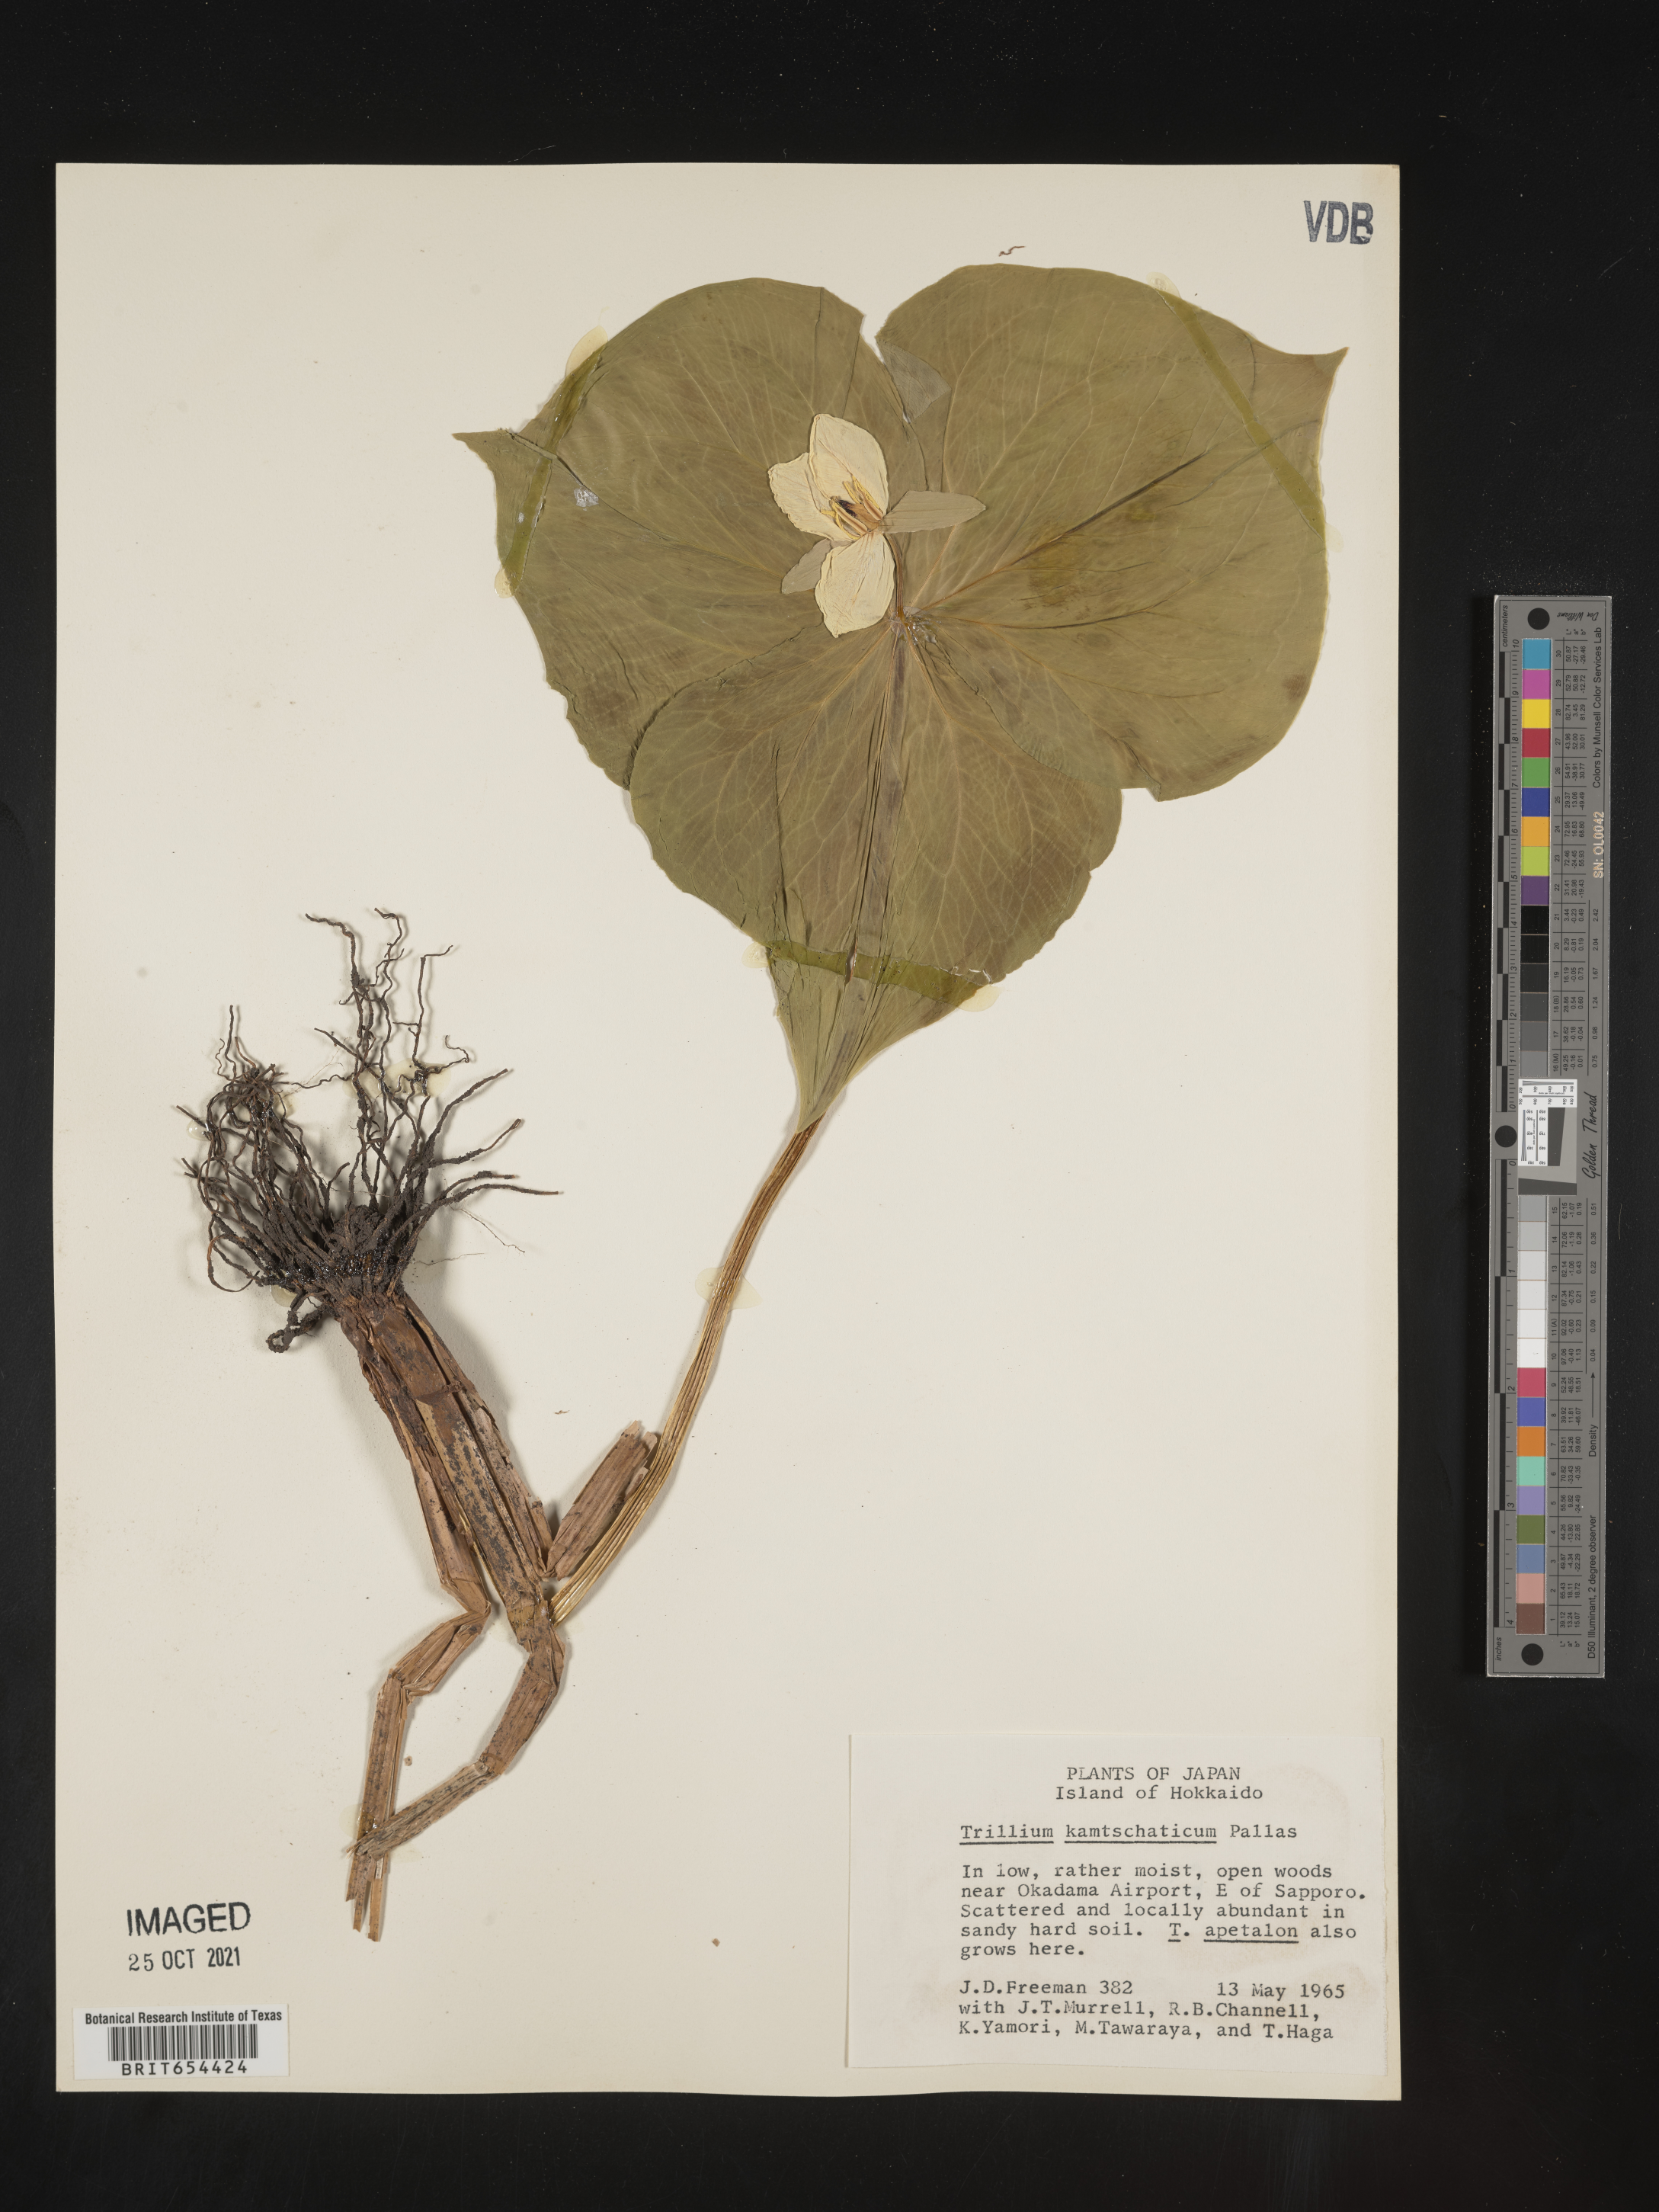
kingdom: Plantae
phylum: Tracheophyta
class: Liliopsida
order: Liliales
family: Melanthiaceae
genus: Trillium
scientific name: Trillium
